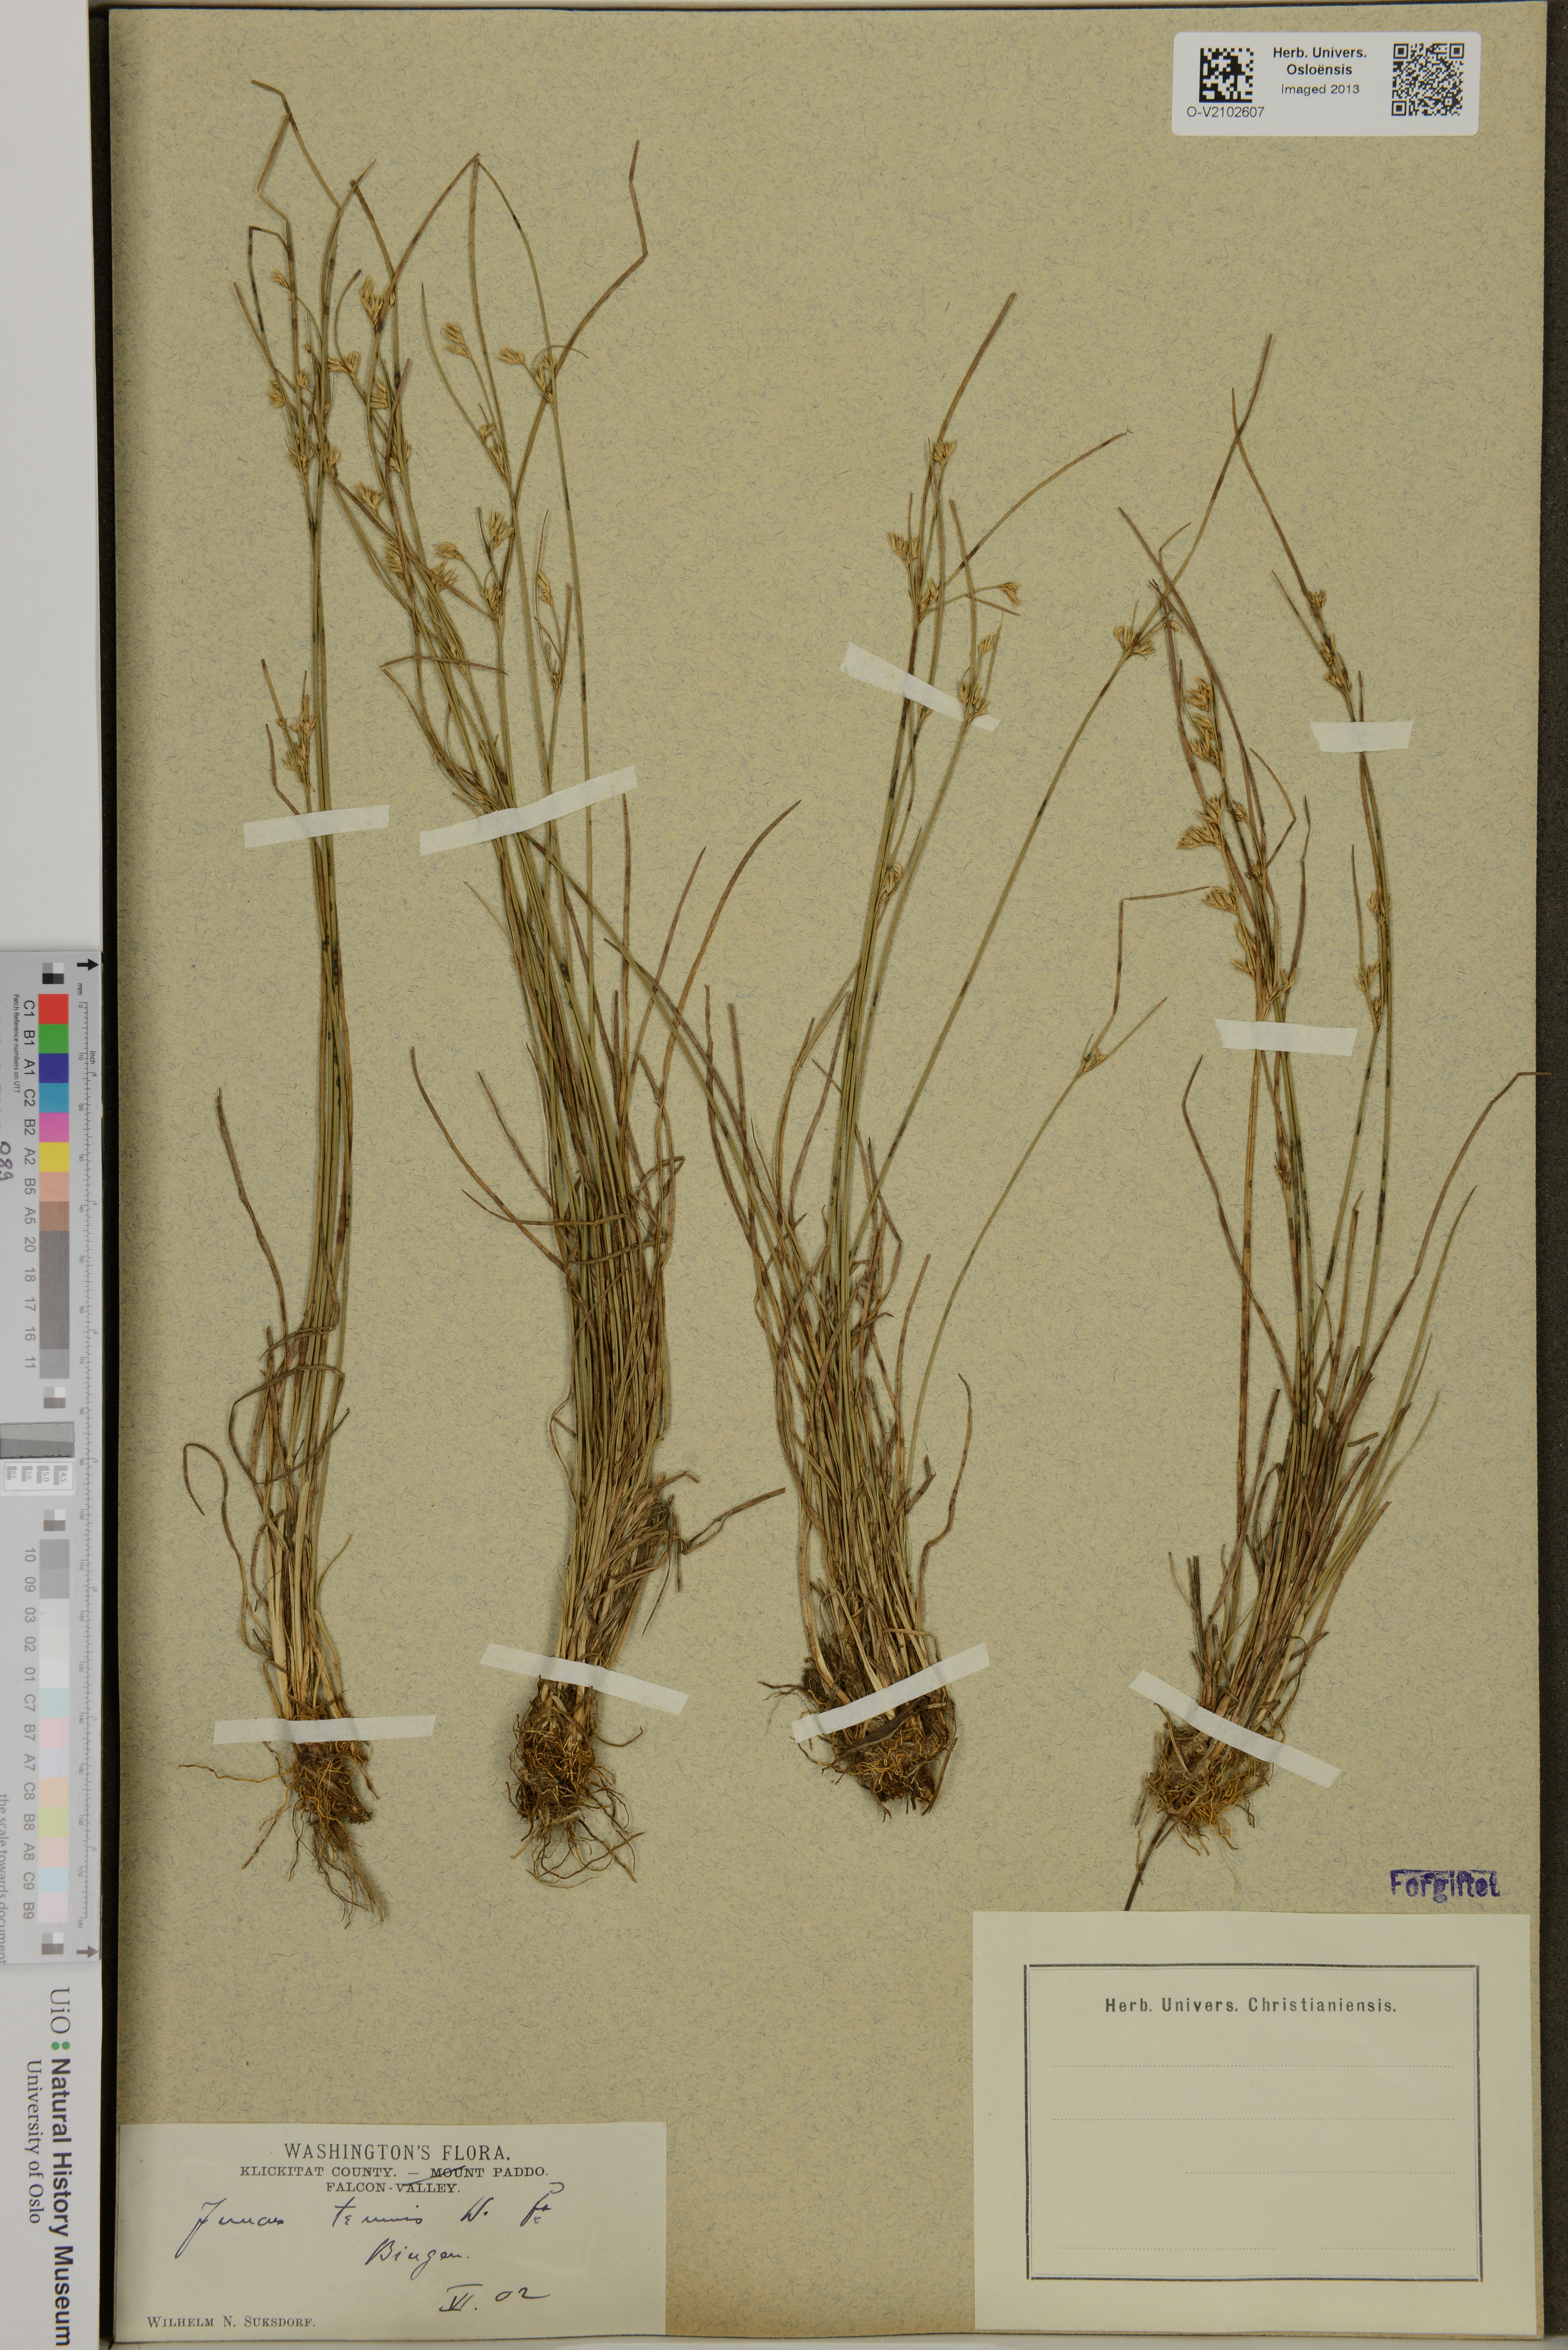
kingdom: Plantae
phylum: Tracheophyta
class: Liliopsida
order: Poales
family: Juncaceae
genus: Juncus
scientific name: Juncus tenuis
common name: Slender rush
